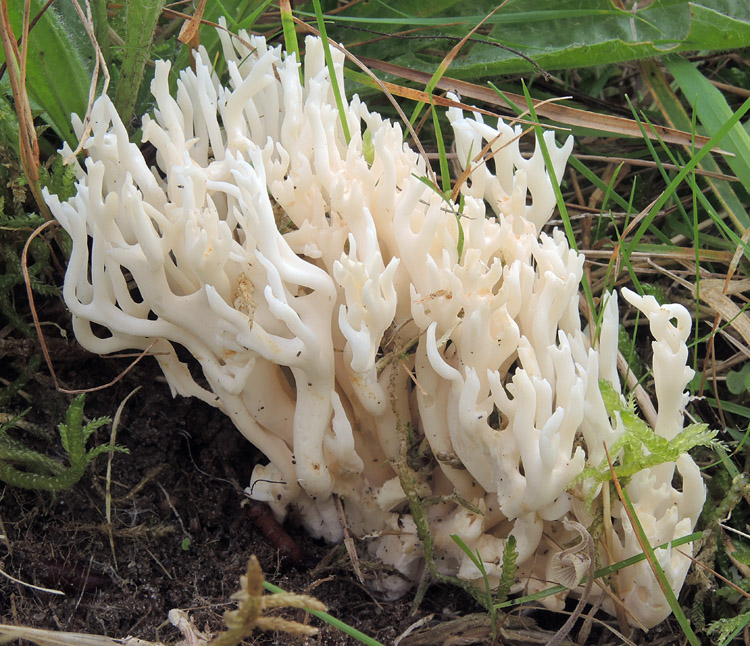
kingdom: Fungi
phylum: Basidiomycota
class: Agaricomycetes
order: Agaricales
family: Clavariaceae
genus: Ramariopsis
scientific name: Ramariopsis robusta
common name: tykgrenet køllesvamp
